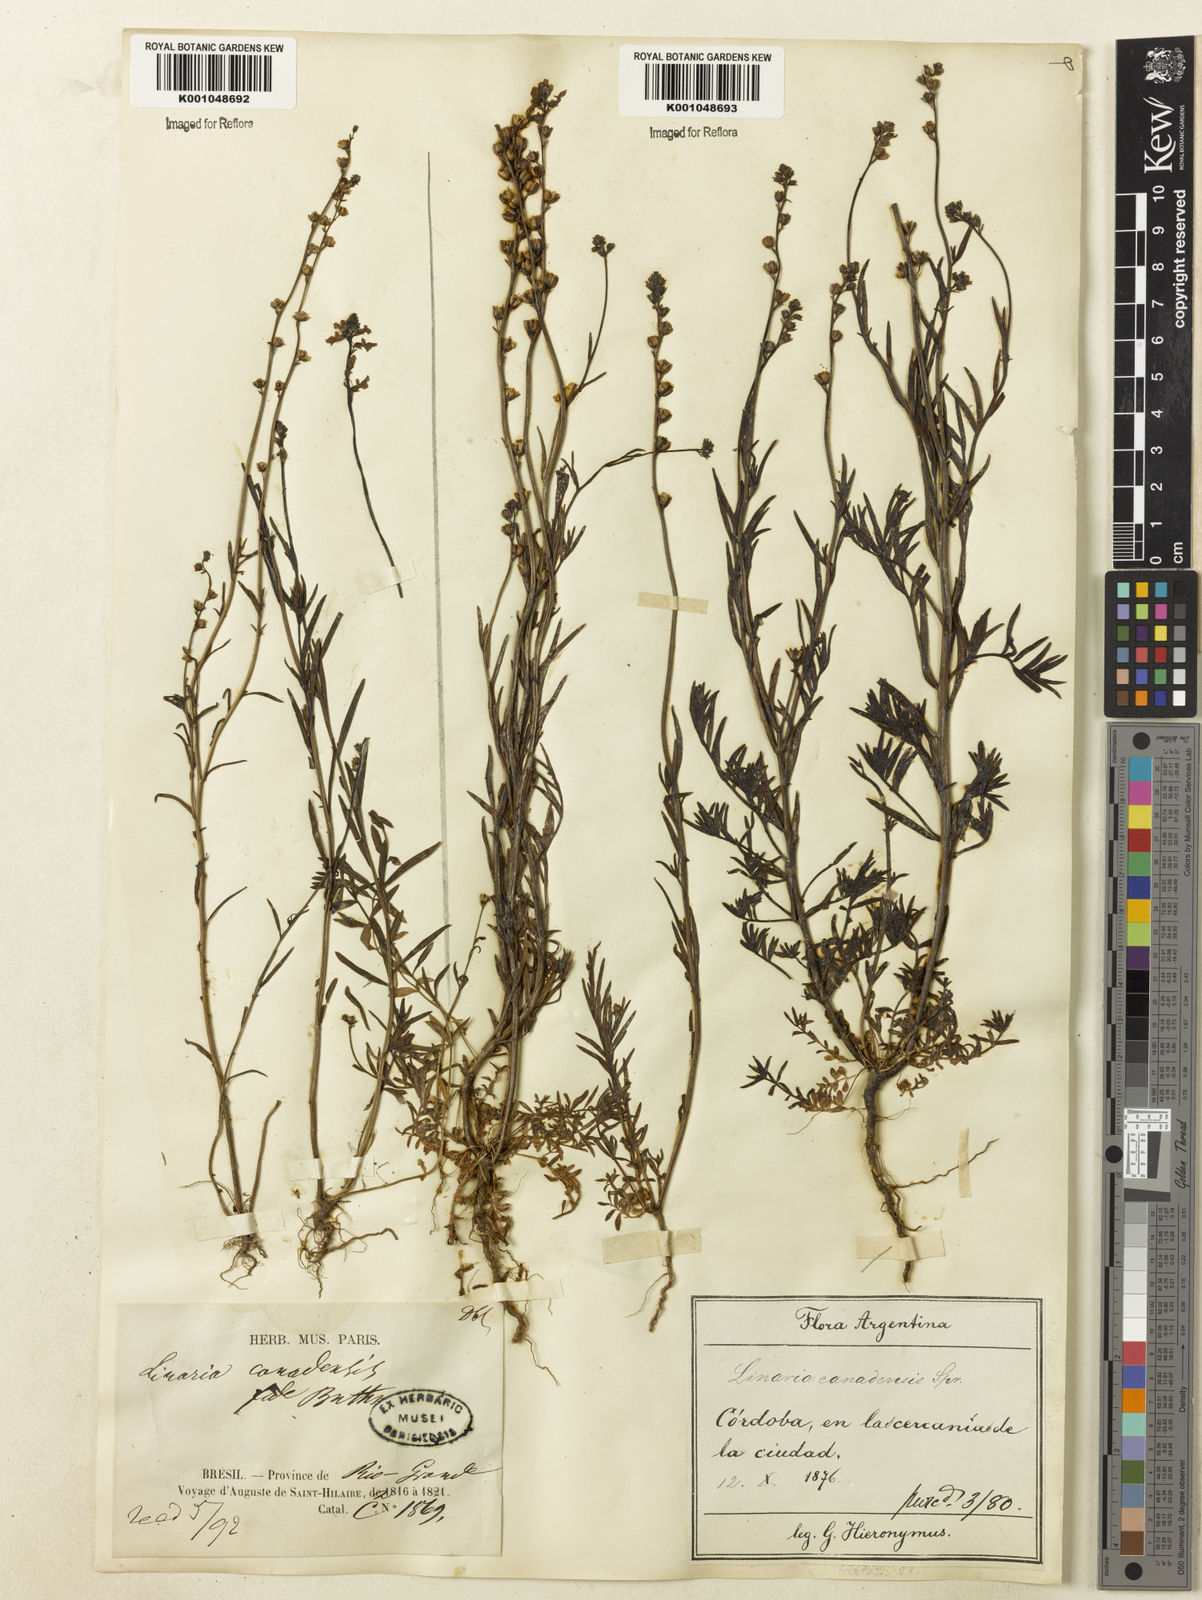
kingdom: Plantae
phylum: Tracheophyta
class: Magnoliopsida
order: Lamiales
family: Plantaginaceae
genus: Nuttallanthus
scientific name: Nuttallanthus canadensis
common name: Blue toadflax
